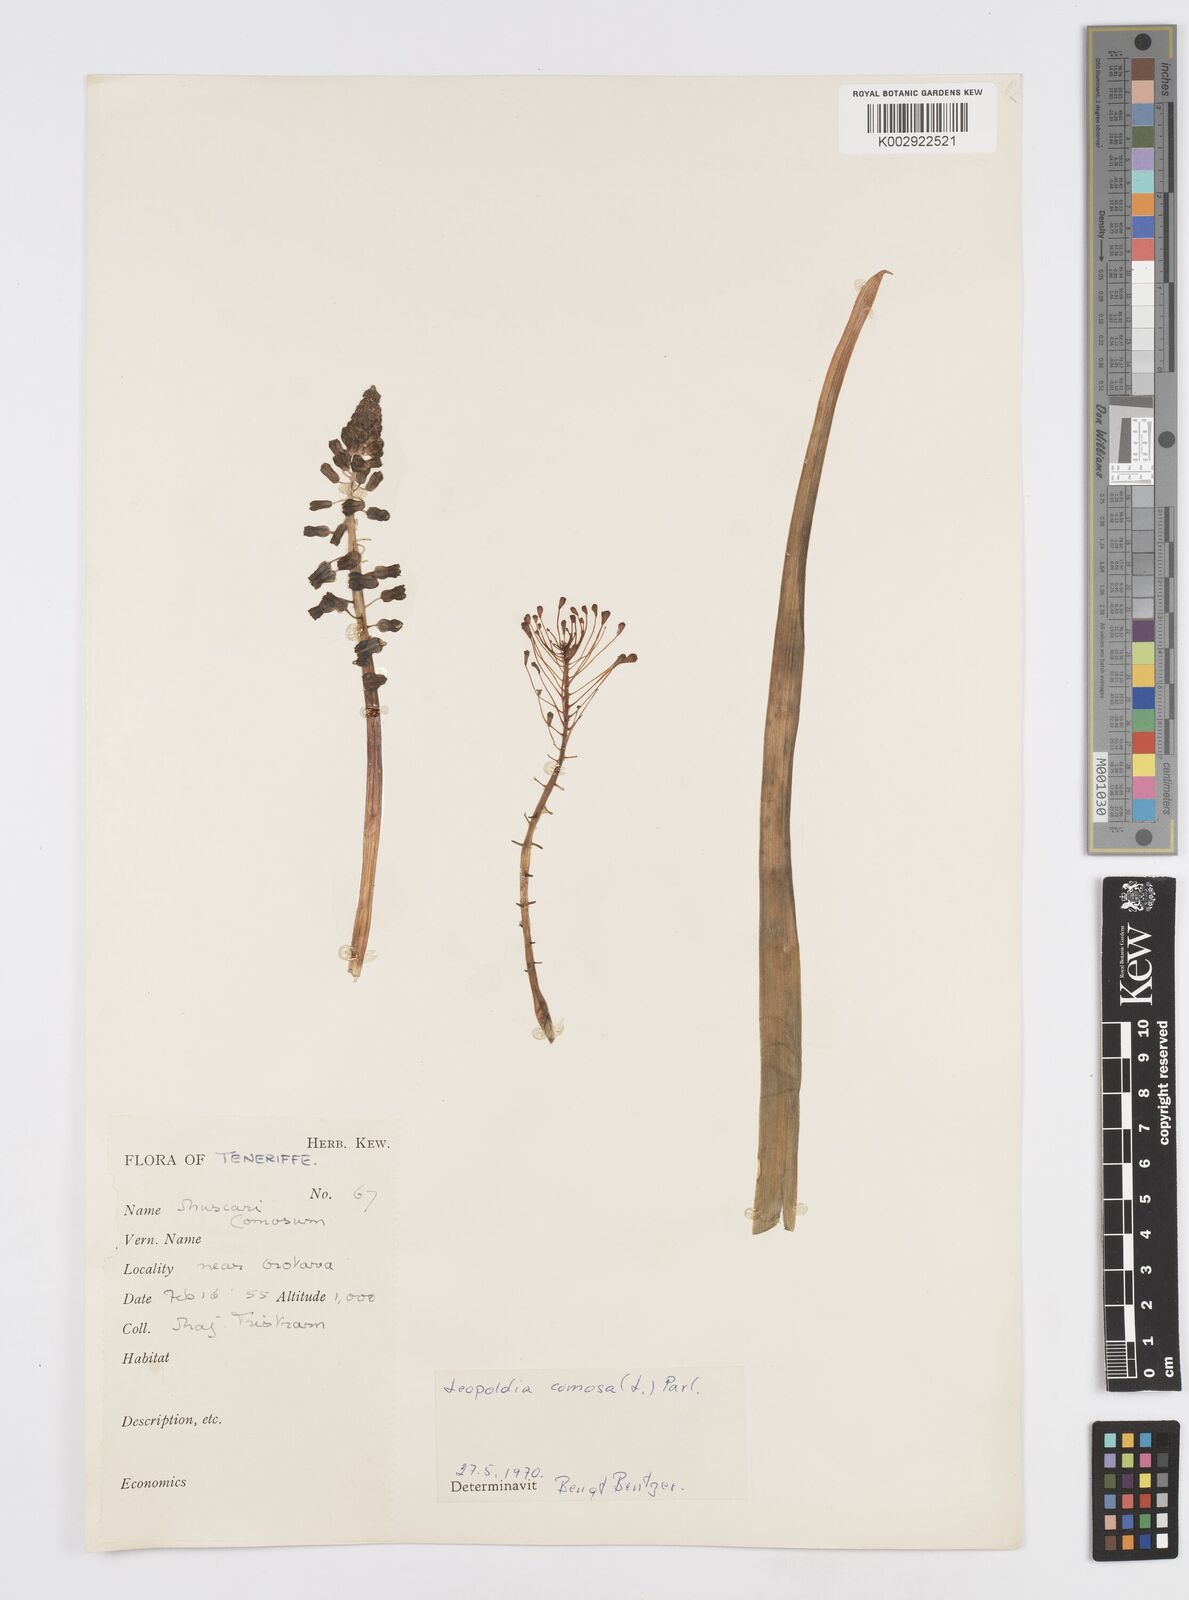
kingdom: Plantae
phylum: Tracheophyta
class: Liliopsida
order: Asparagales
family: Asparagaceae
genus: Muscari
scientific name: Muscari comosum
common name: Tassel hyacinth
